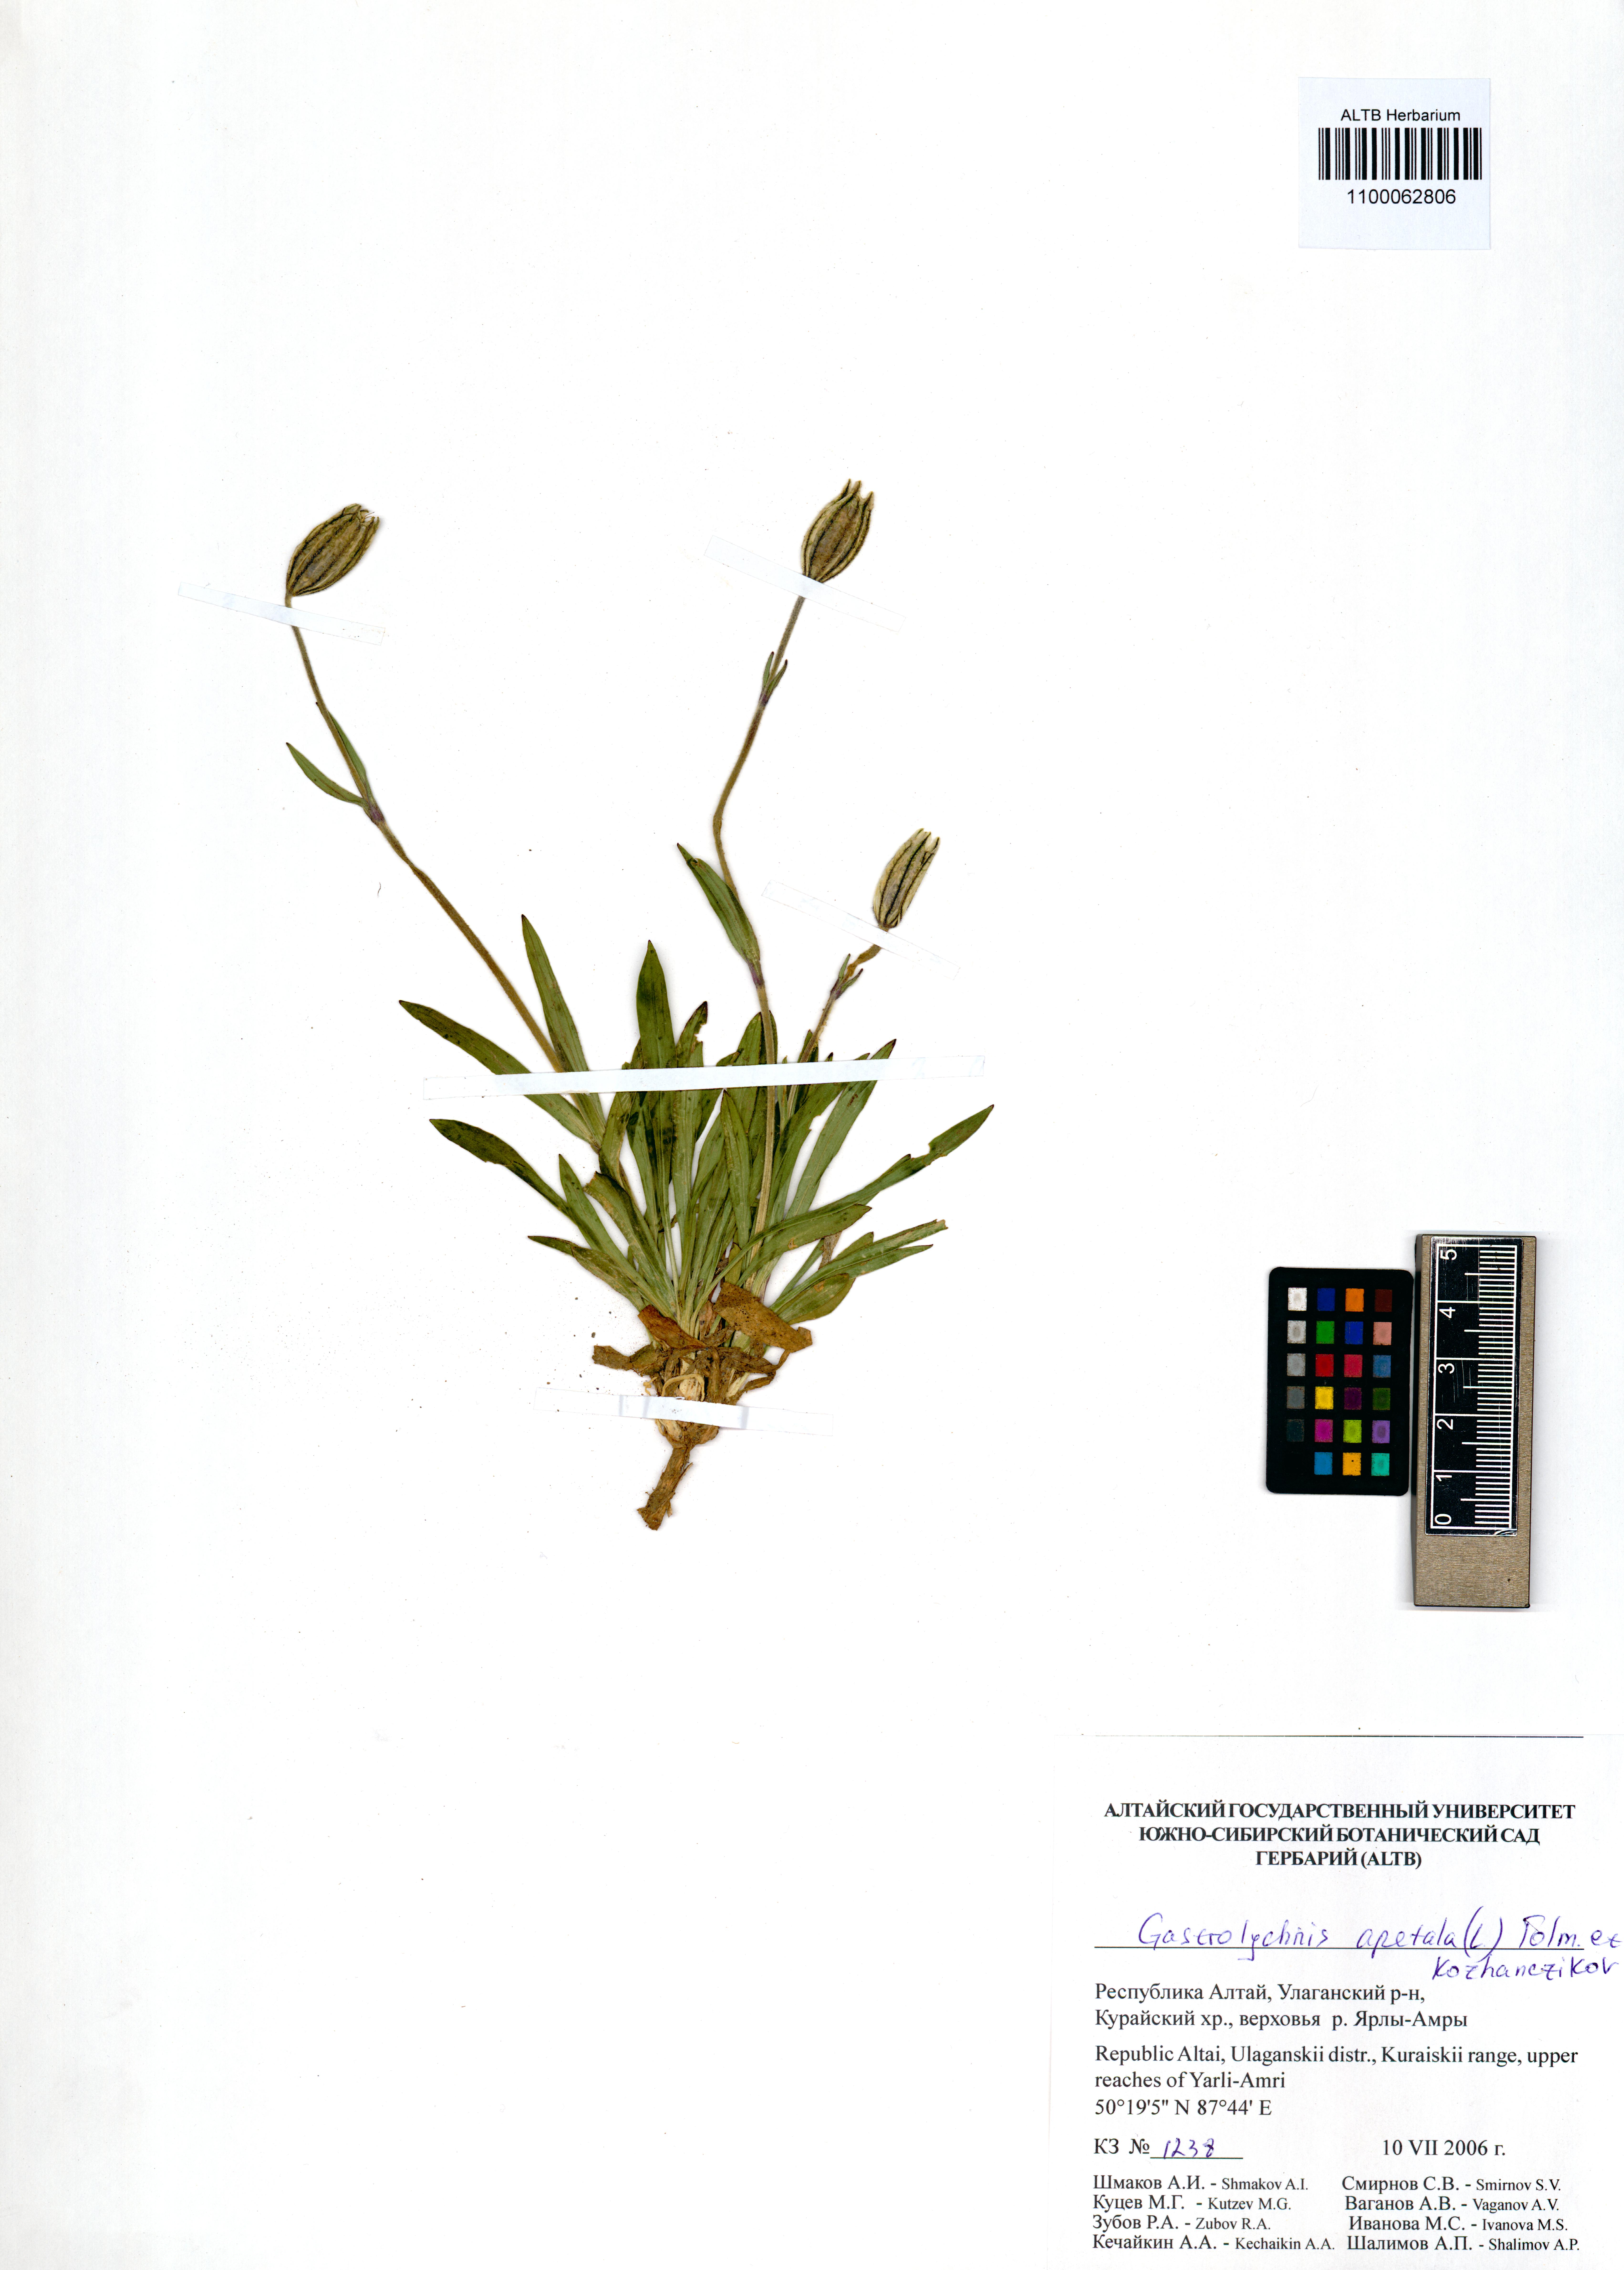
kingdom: Plantae
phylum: Tracheophyta
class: Magnoliopsida
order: Caryophyllales
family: Caryophyllaceae
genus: Silene
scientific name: Silene wahlbergella
